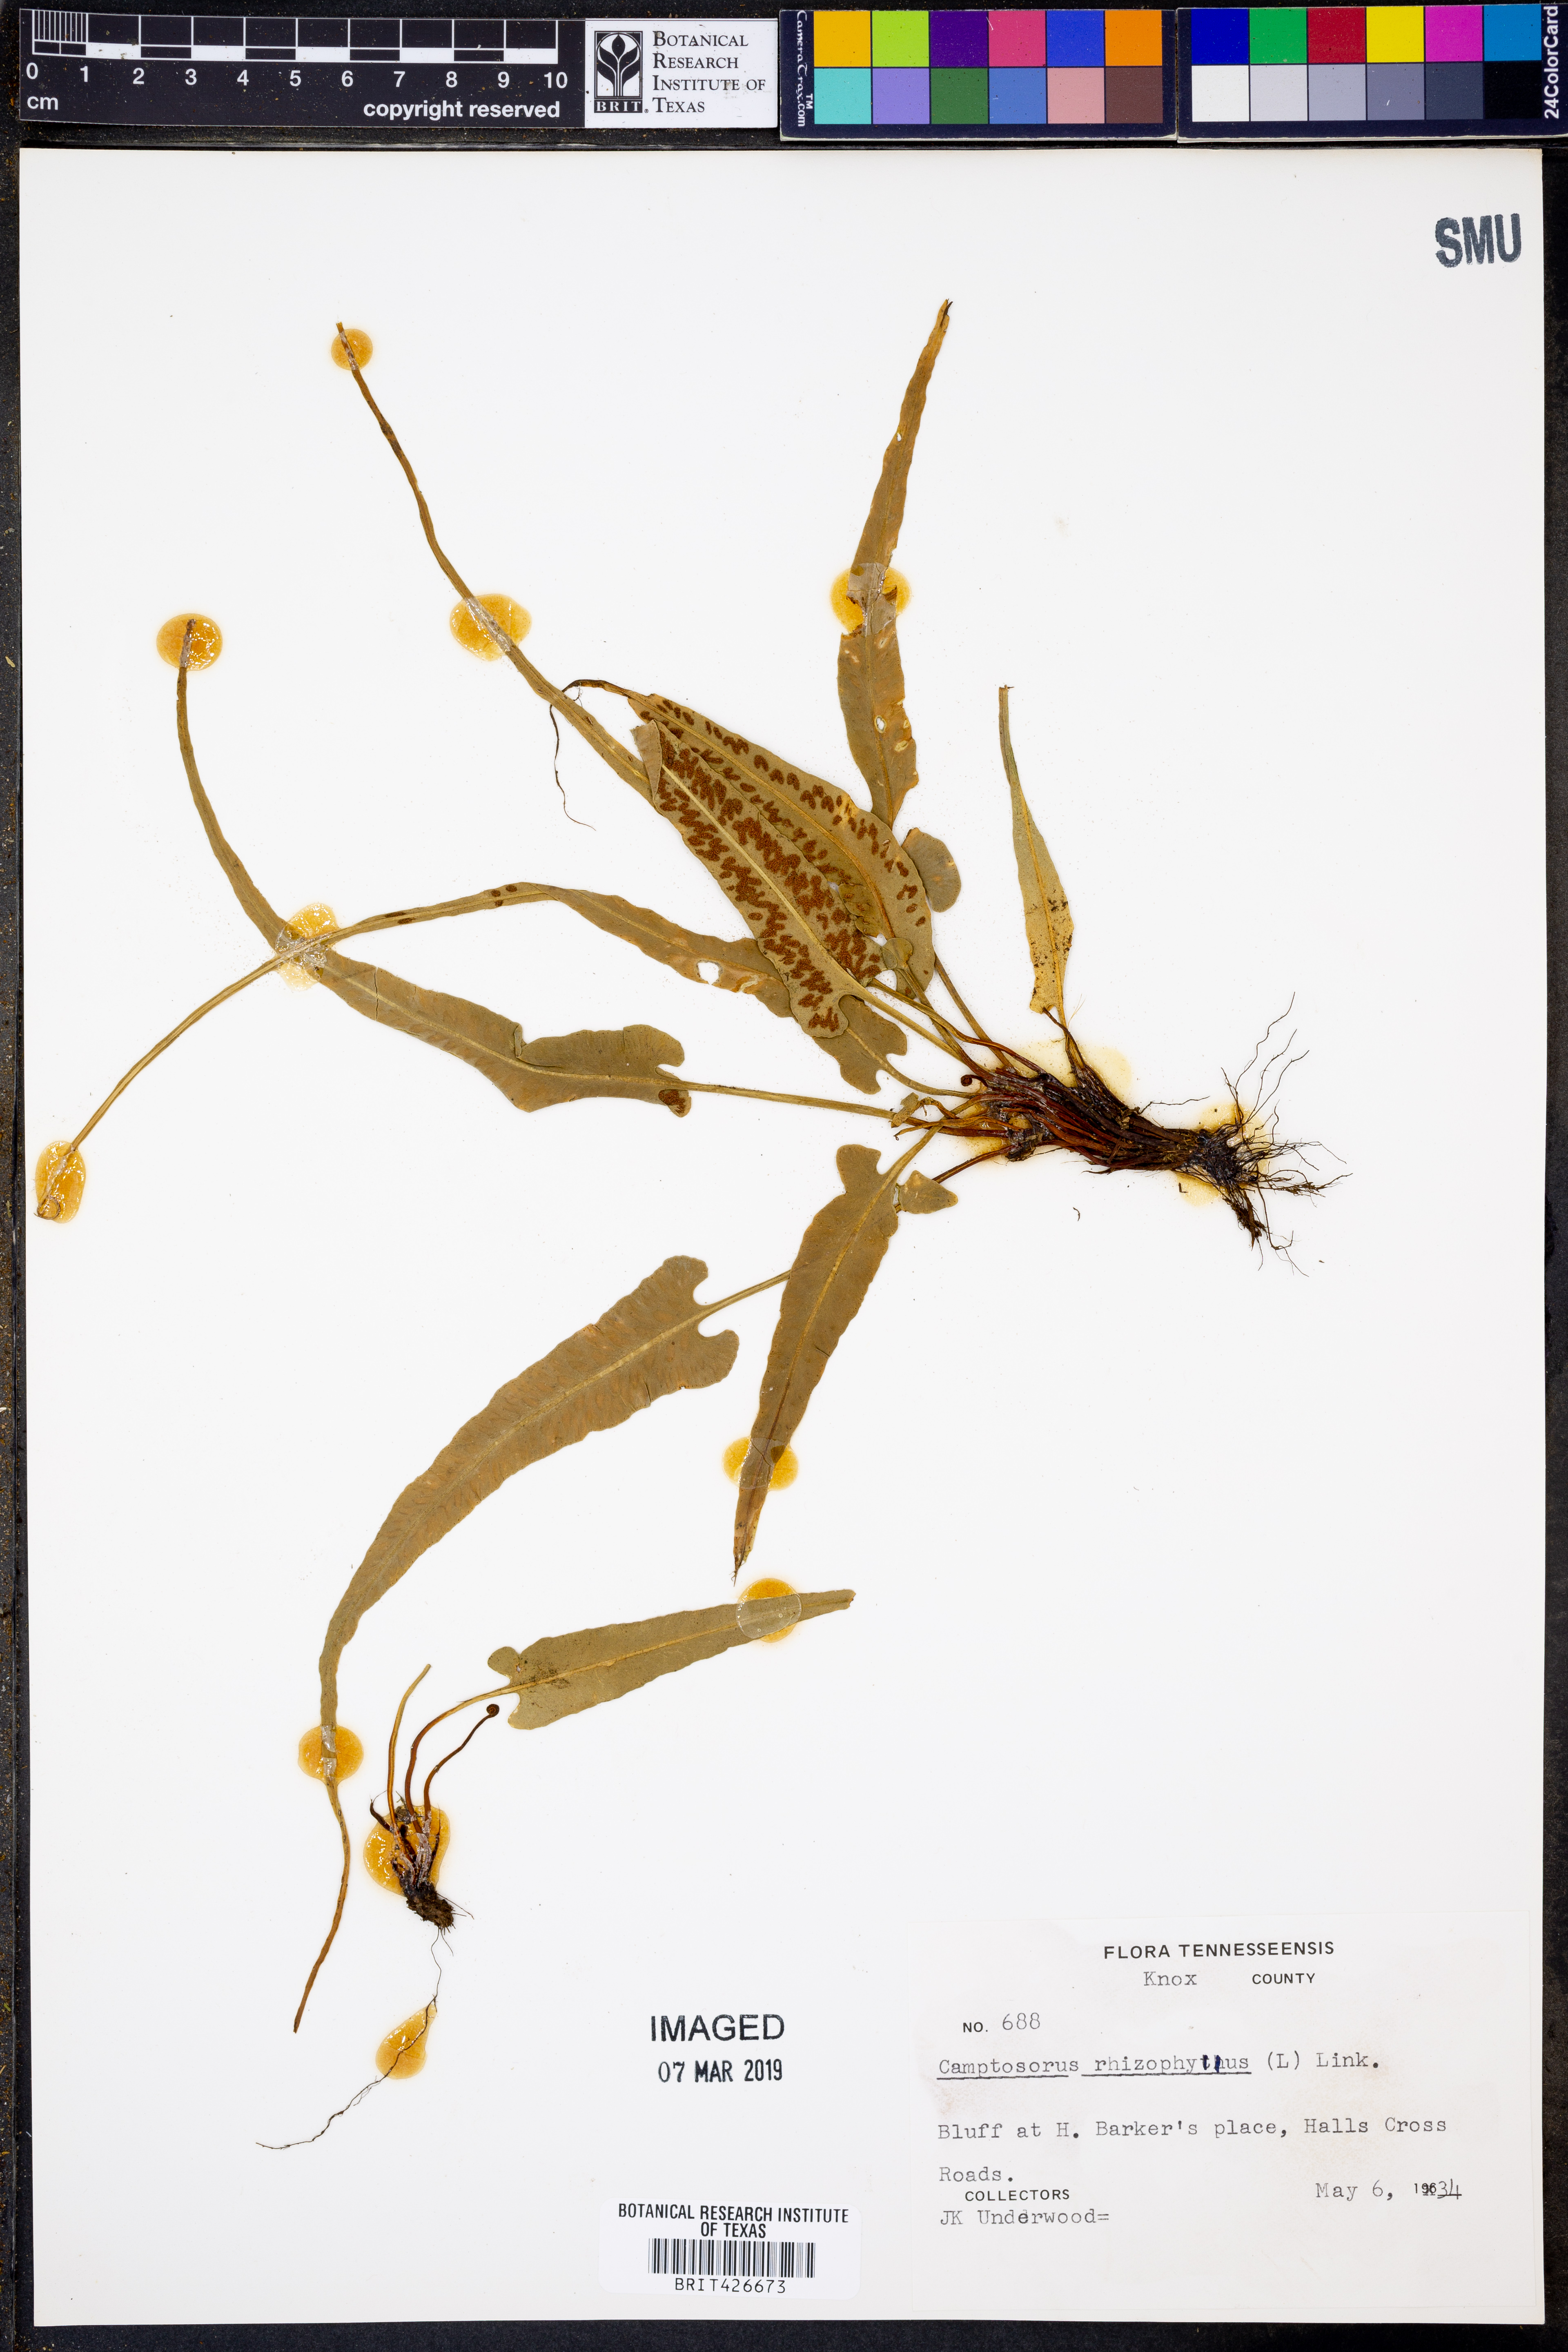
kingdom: Plantae
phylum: Tracheophyta
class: Polypodiopsida
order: Polypodiales
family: Aspleniaceae
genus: Asplenium
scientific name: Asplenium rhizophyllum
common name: Walking fern
